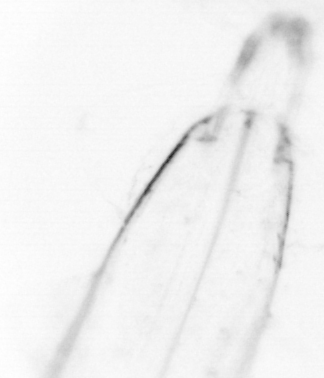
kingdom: Animalia
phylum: Chaetognatha
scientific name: Chaetognatha
